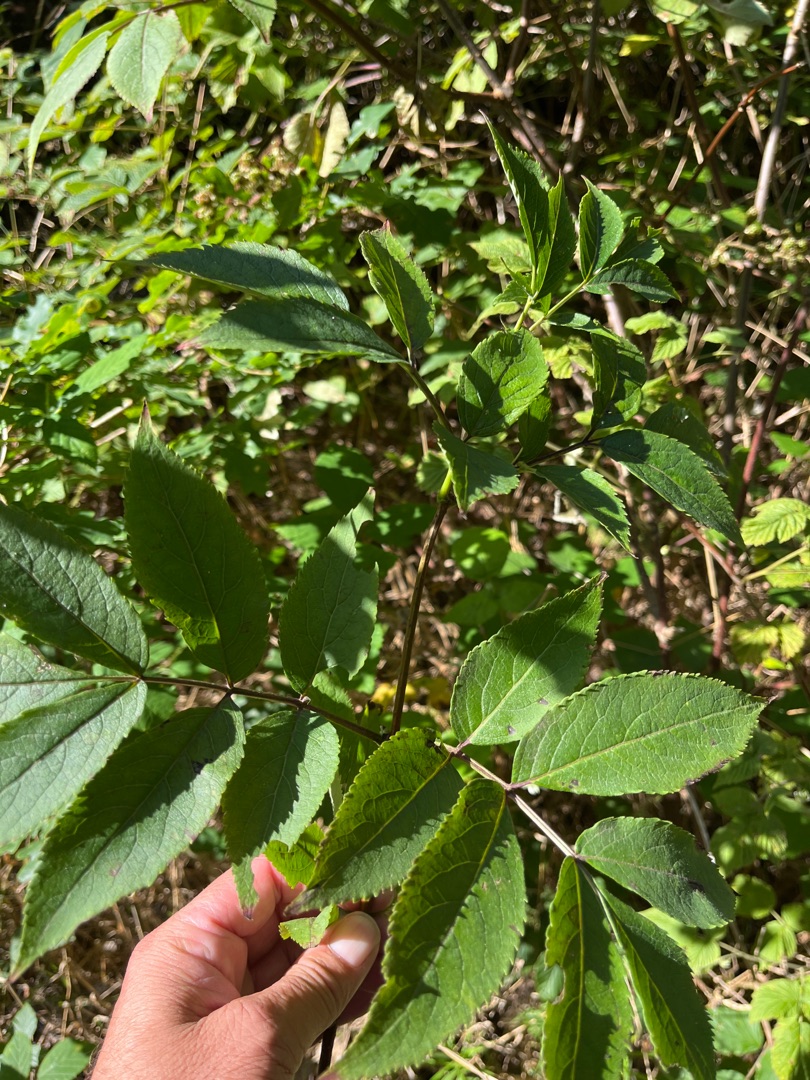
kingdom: Plantae
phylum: Tracheophyta
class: Magnoliopsida
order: Dipsacales
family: Viburnaceae
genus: Sambucus
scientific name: Sambucus racemosa
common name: Drue-hyld
